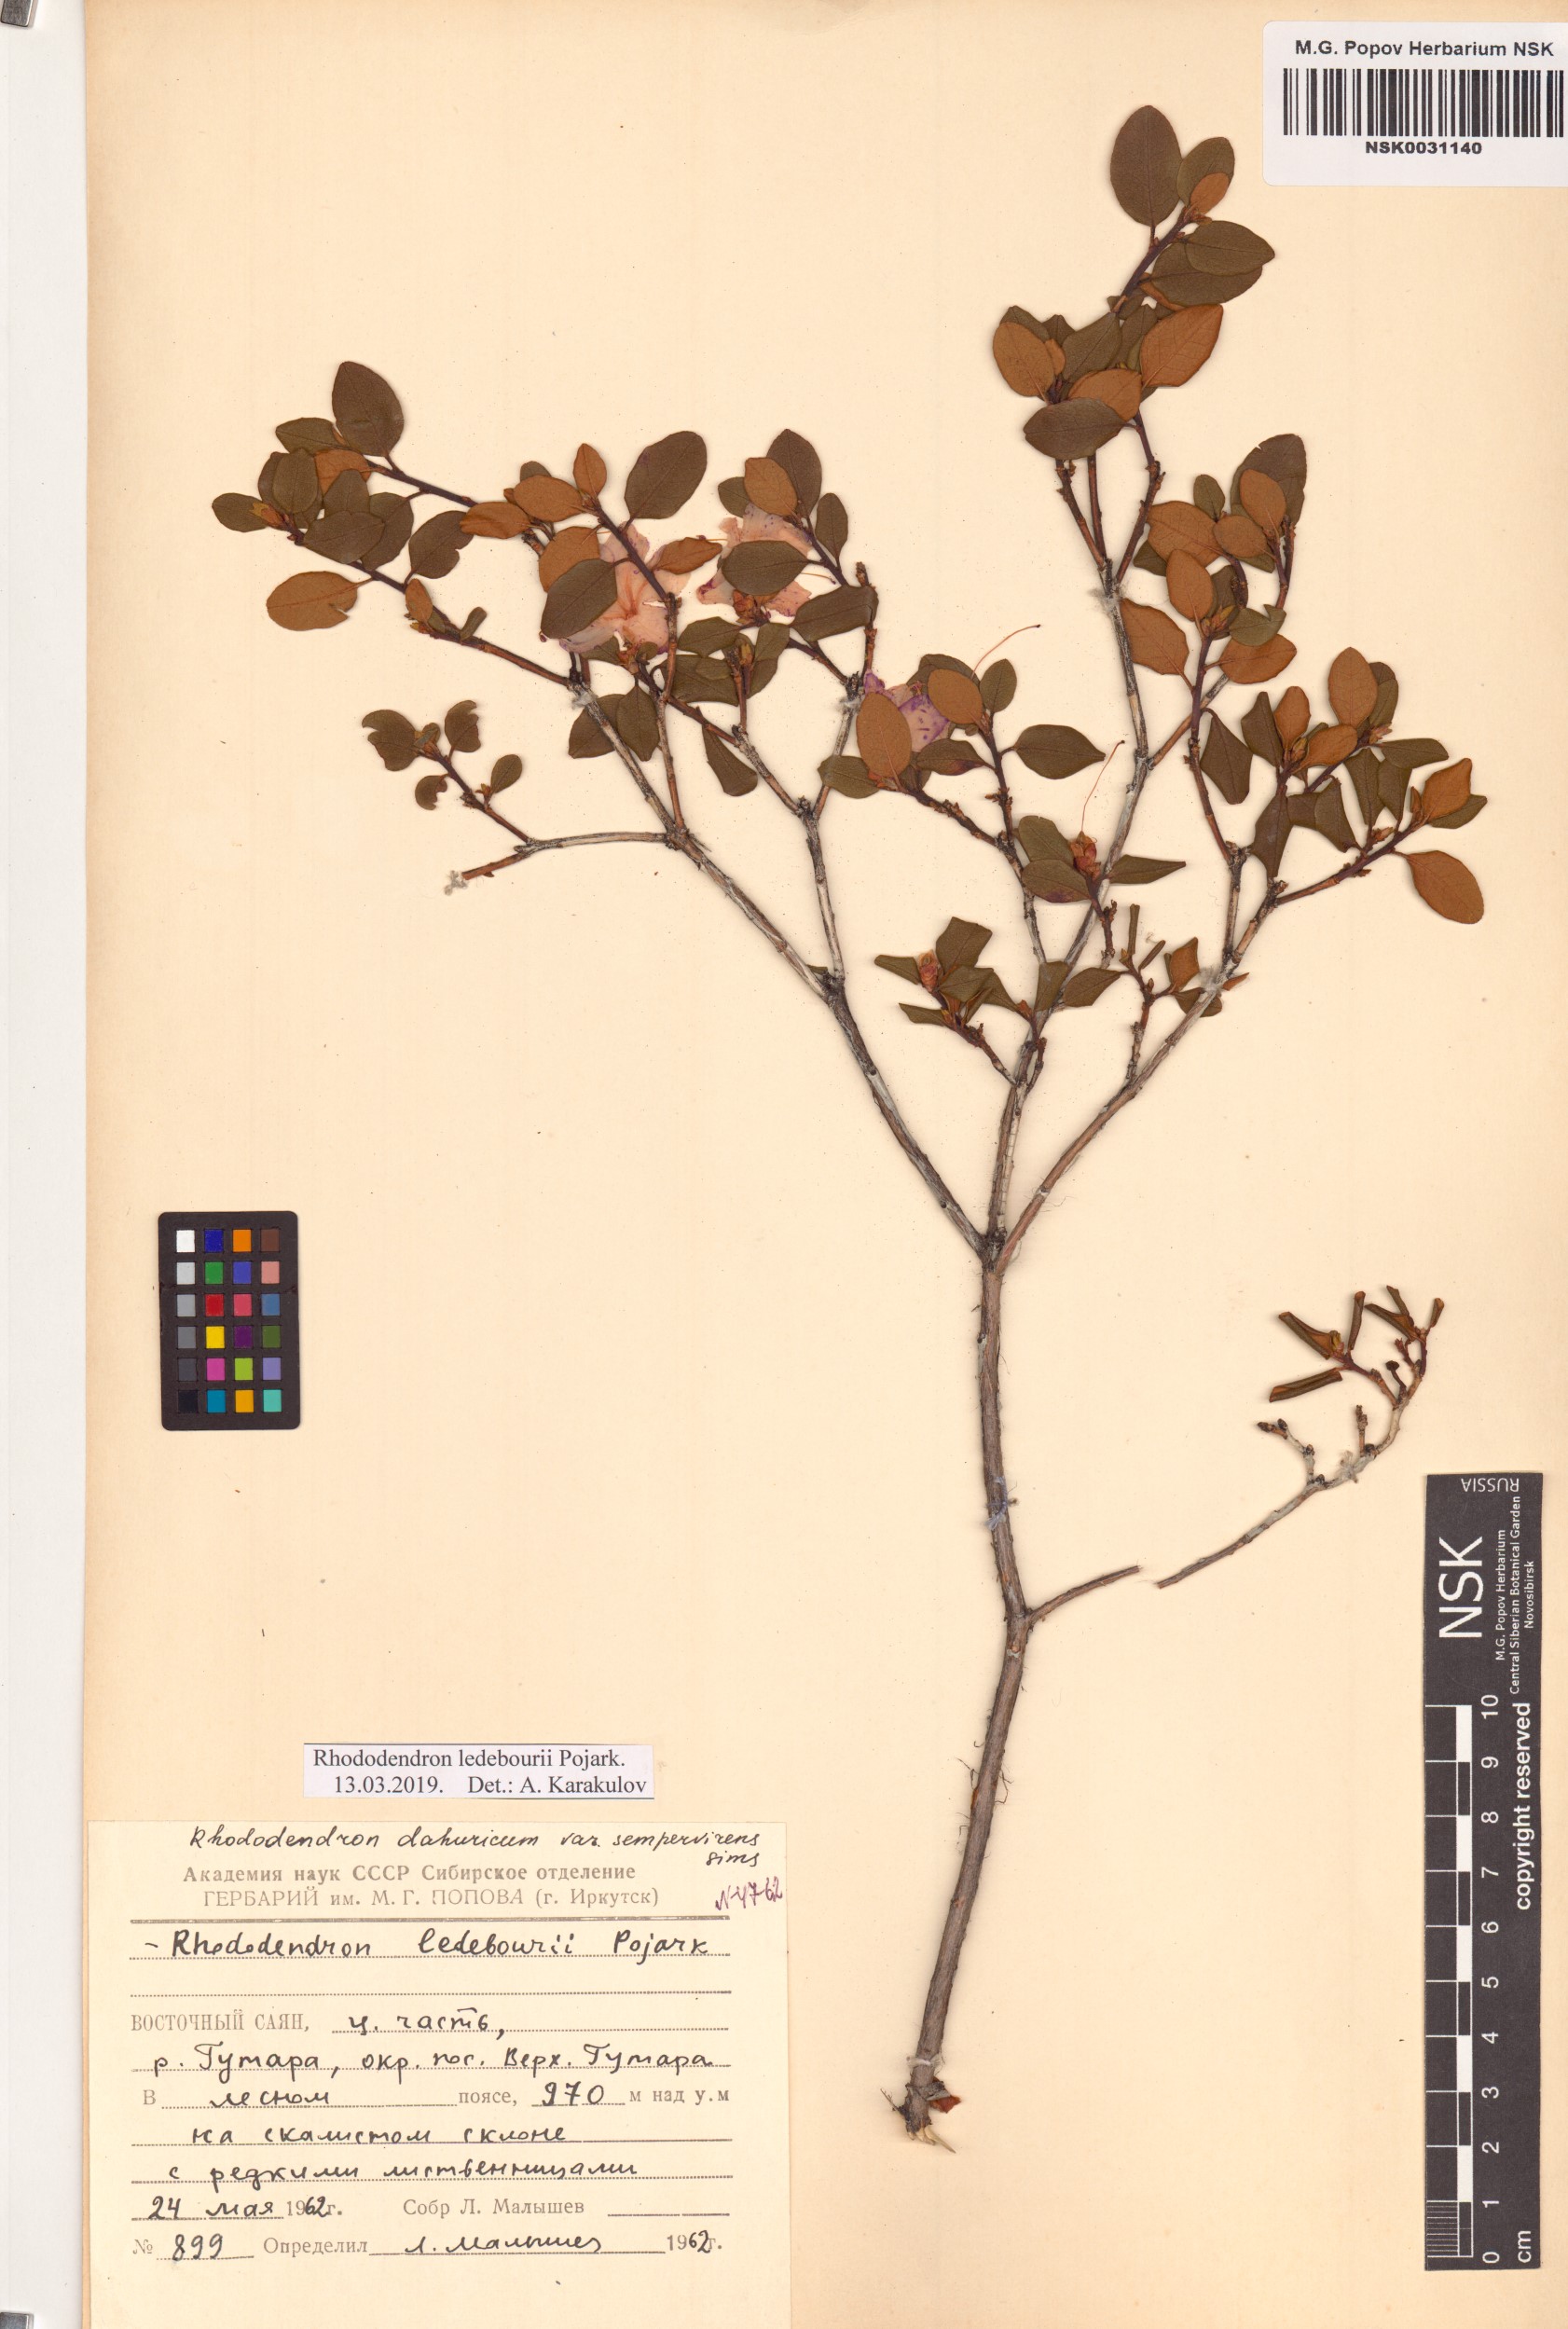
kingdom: Plantae
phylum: Tracheophyta
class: Magnoliopsida
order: Ericales
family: Ericaceae
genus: Rhododendron
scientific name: Rhododendron dauricum
